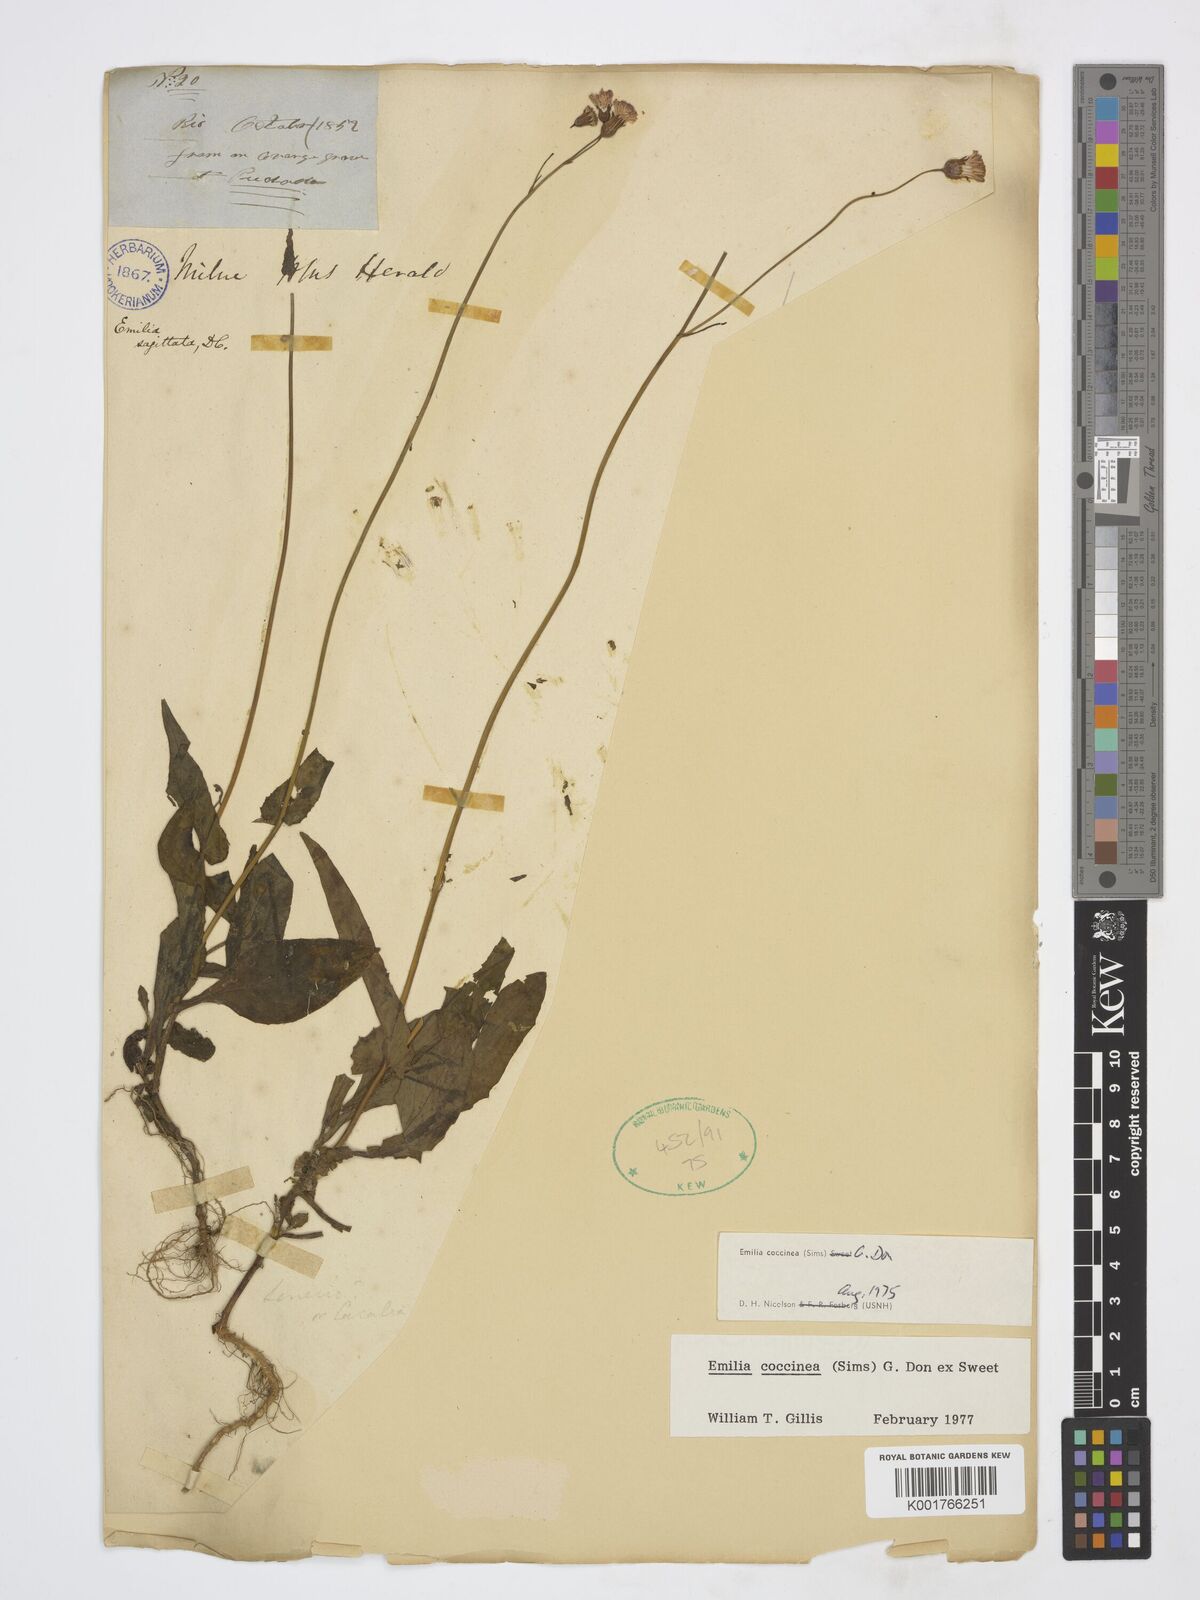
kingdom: Plantae
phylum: Tracheophyta
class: Magnoliopsida
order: Asterales
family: Asteraceae
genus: Emilia
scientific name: Emilia coccinea
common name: Scarlet tasselflower
